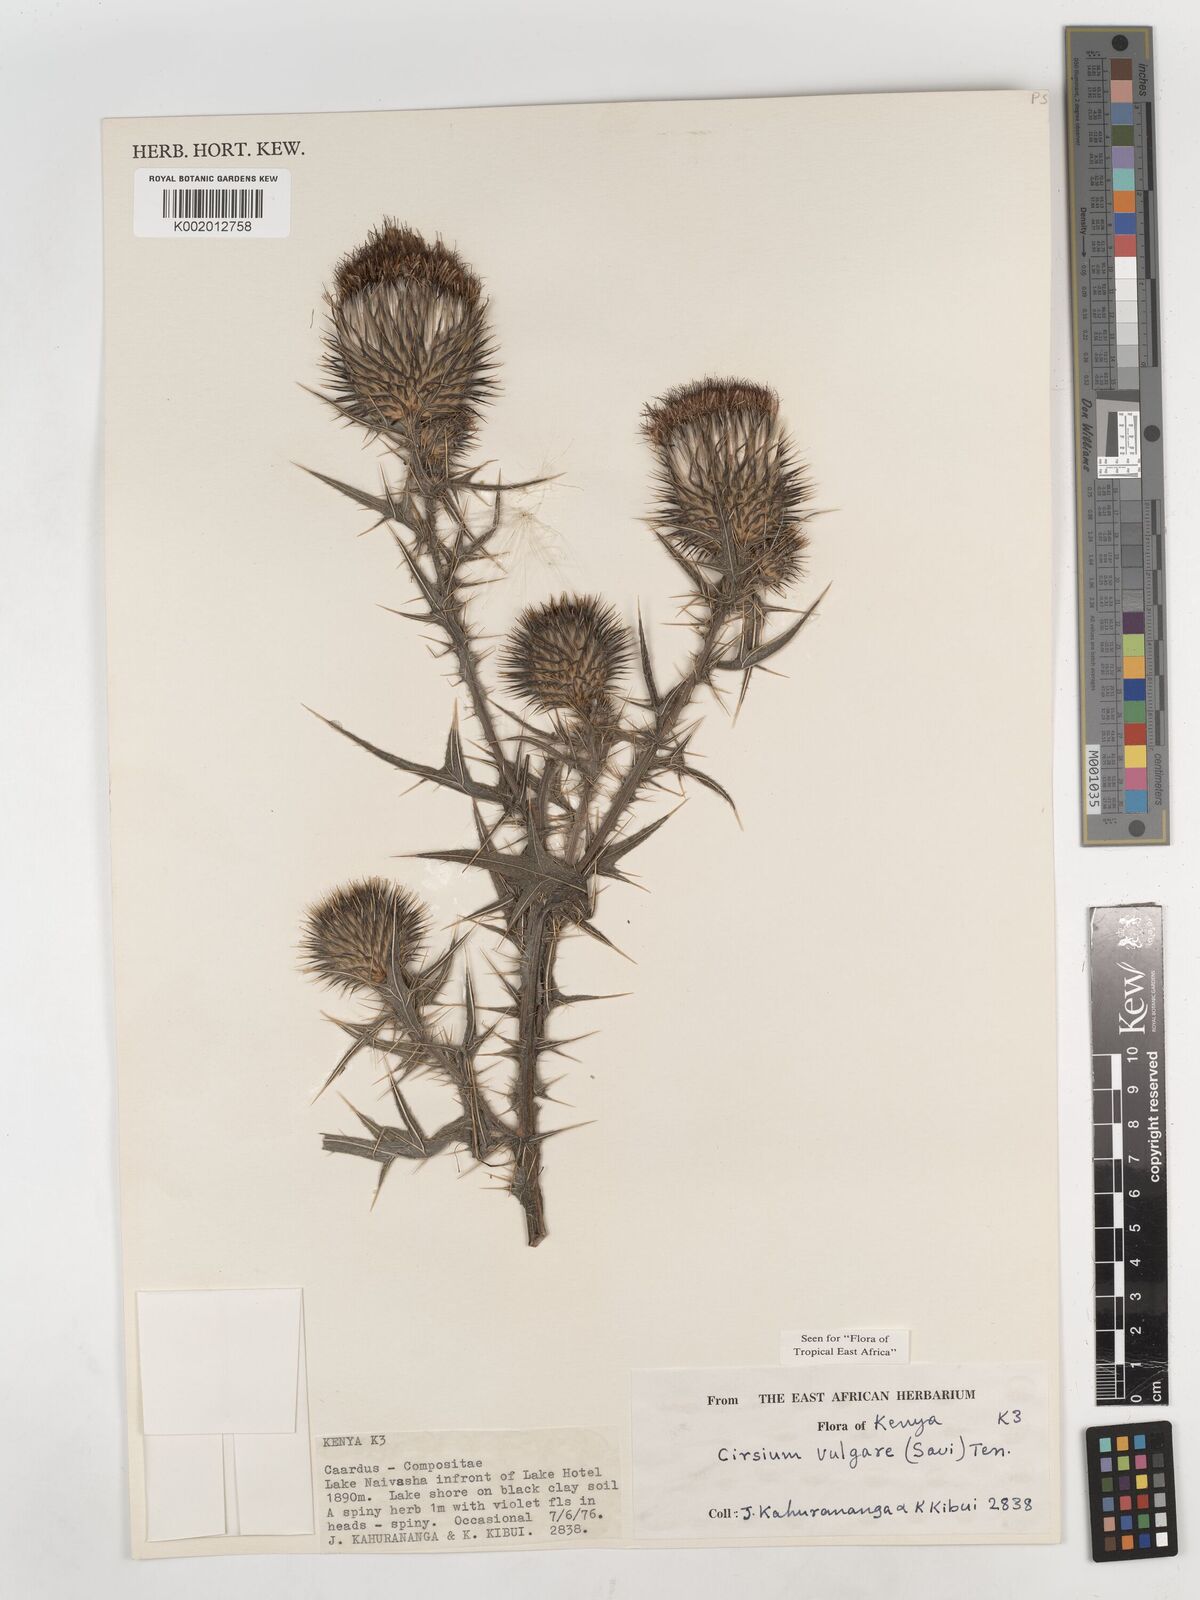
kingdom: Plantae
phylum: Tracheophyta
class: Magnoliopsida
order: Asterales
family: Asteraceae
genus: Cirsium
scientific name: Cirsium vulgare
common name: Bull thistle
